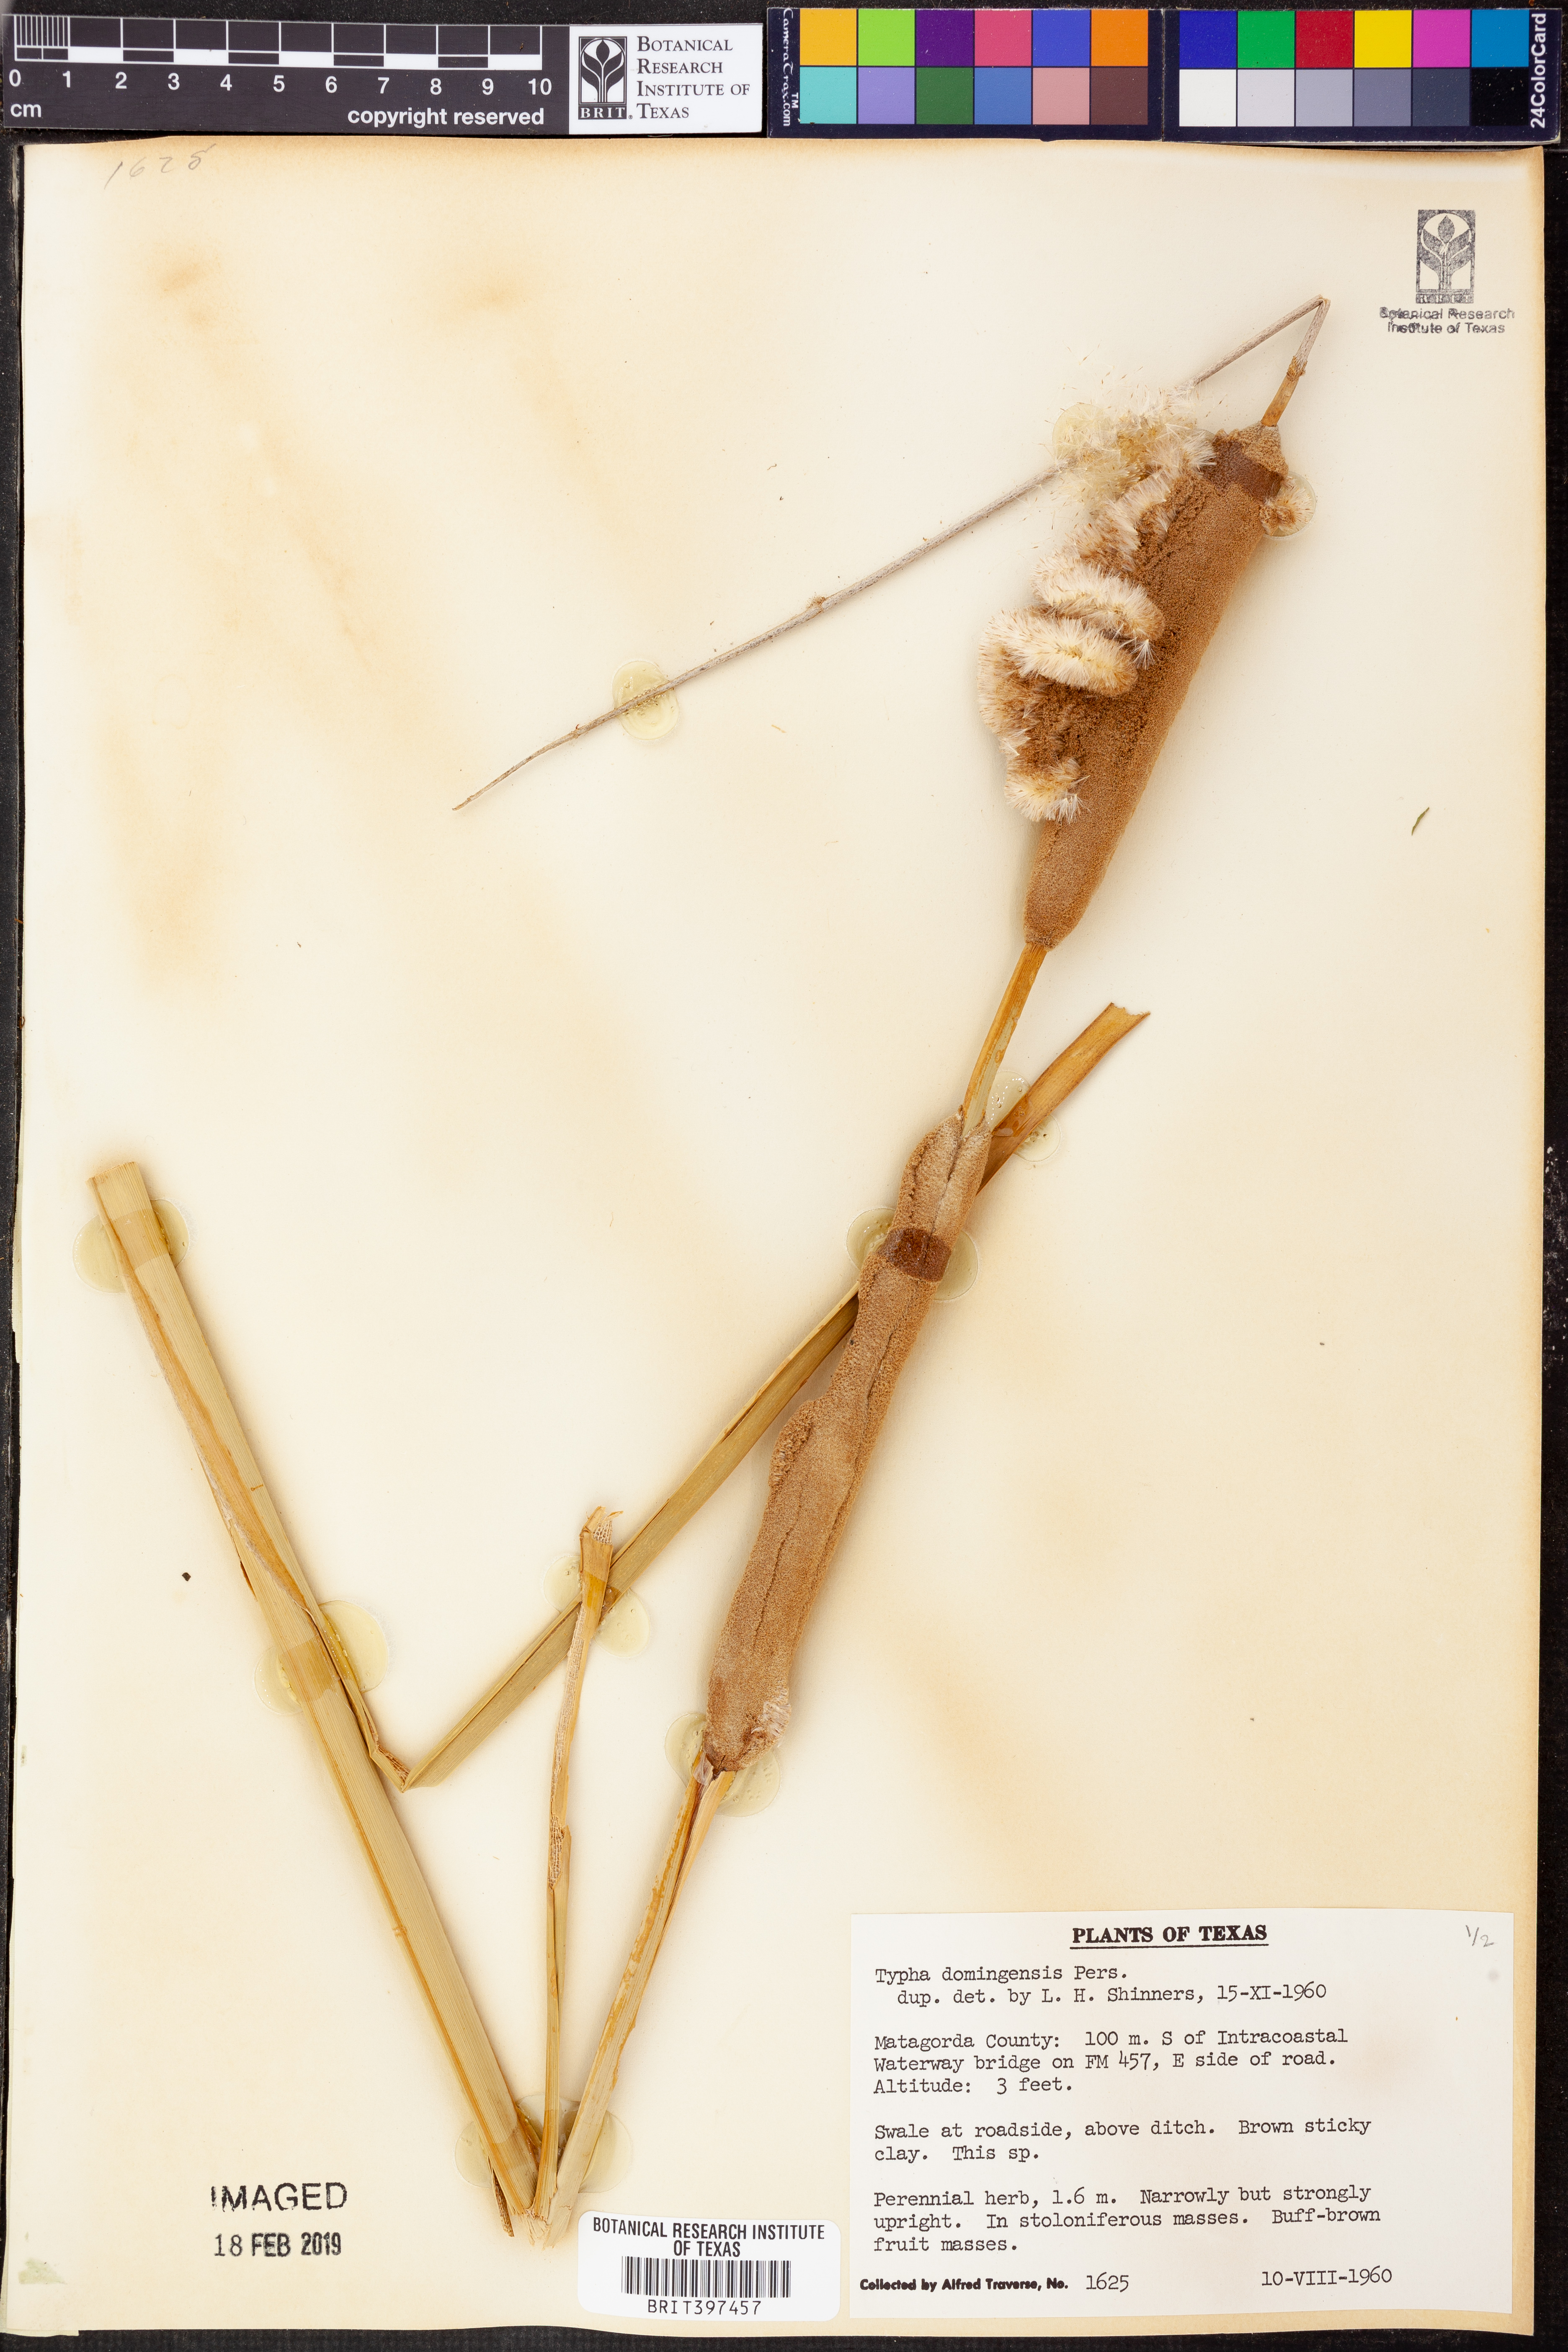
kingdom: Plantae
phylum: Tracheophyta
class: Liliopsida
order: Poales
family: Typhaceae
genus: Typha
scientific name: Typha domingensis
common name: Southern cattail
